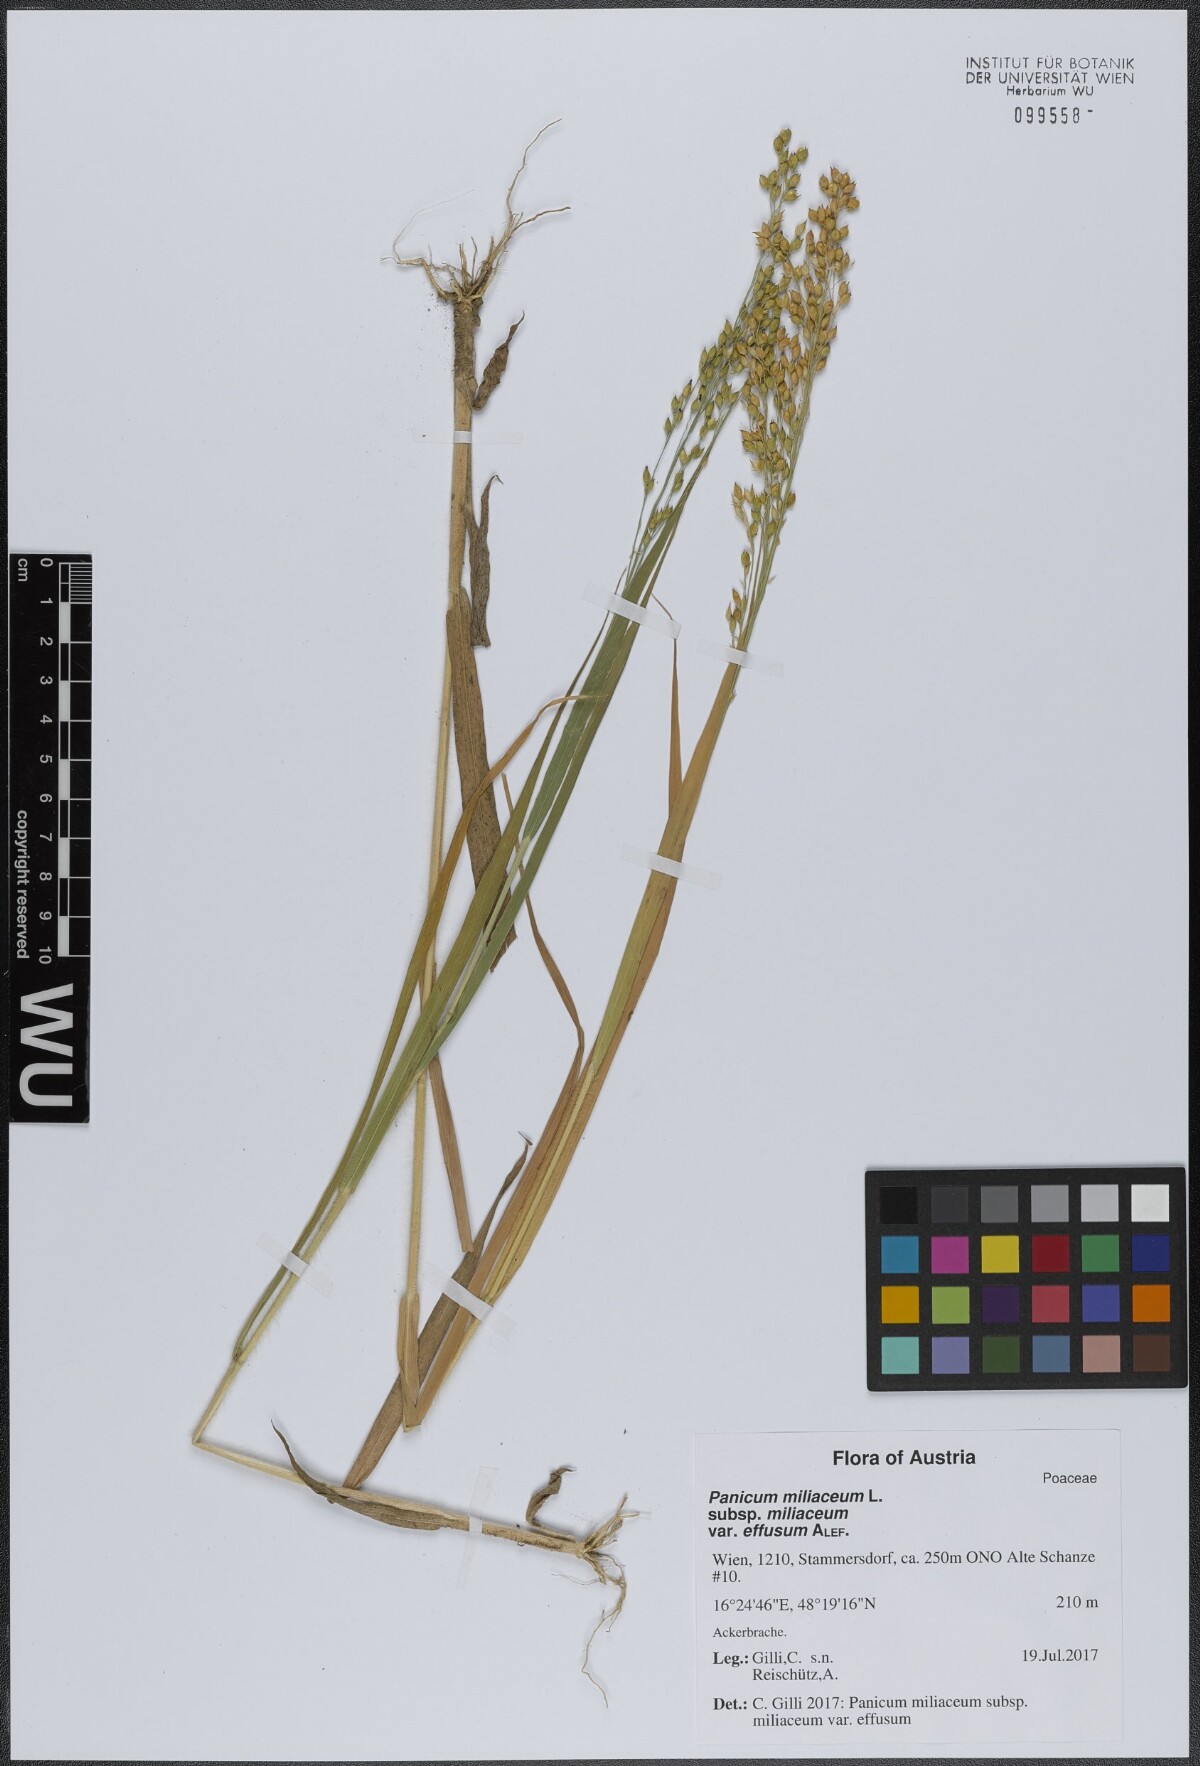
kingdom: Plantae
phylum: Tracheophyta
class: Liliopsida
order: Poales
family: Poaceae
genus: Panicum
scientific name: Panicum miliaceum
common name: Common millet
